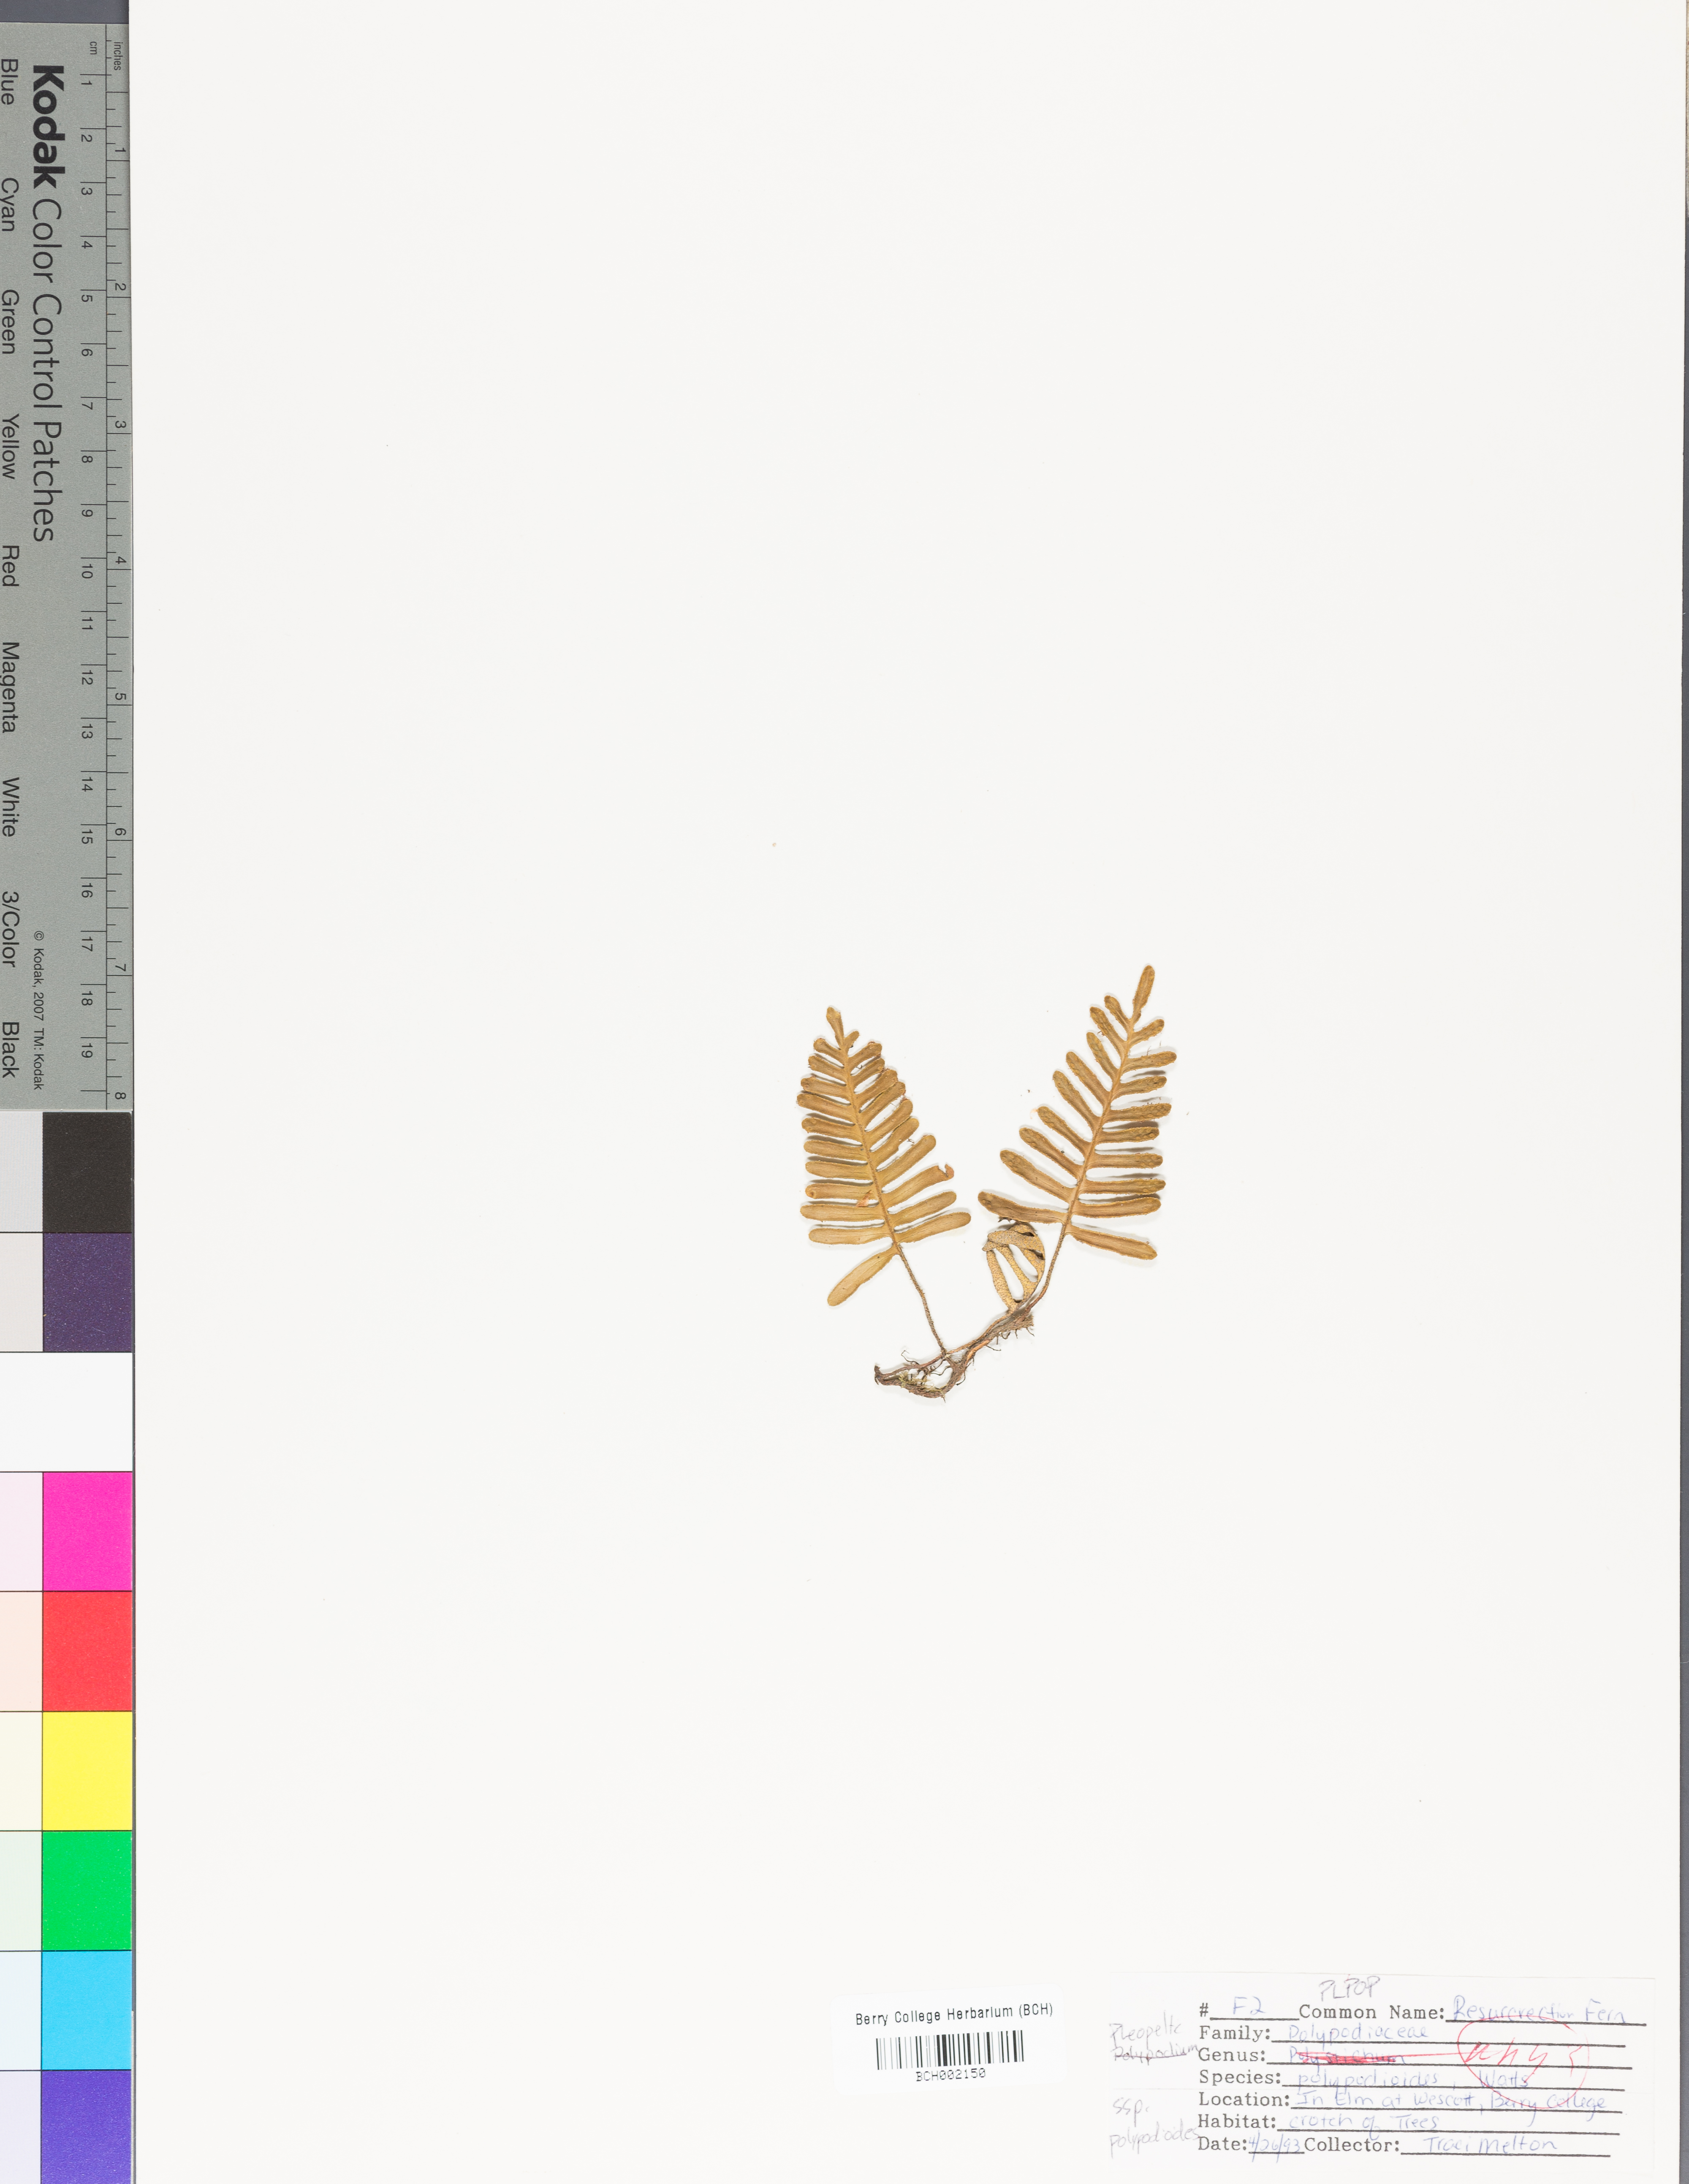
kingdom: Plantae
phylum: Tracheophyta
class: Polypodiopsida
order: Polypodiales
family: Polypodiaceae
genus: Pleopeltis
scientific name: Pleopeltis polypodioides
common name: Resurrection fern
